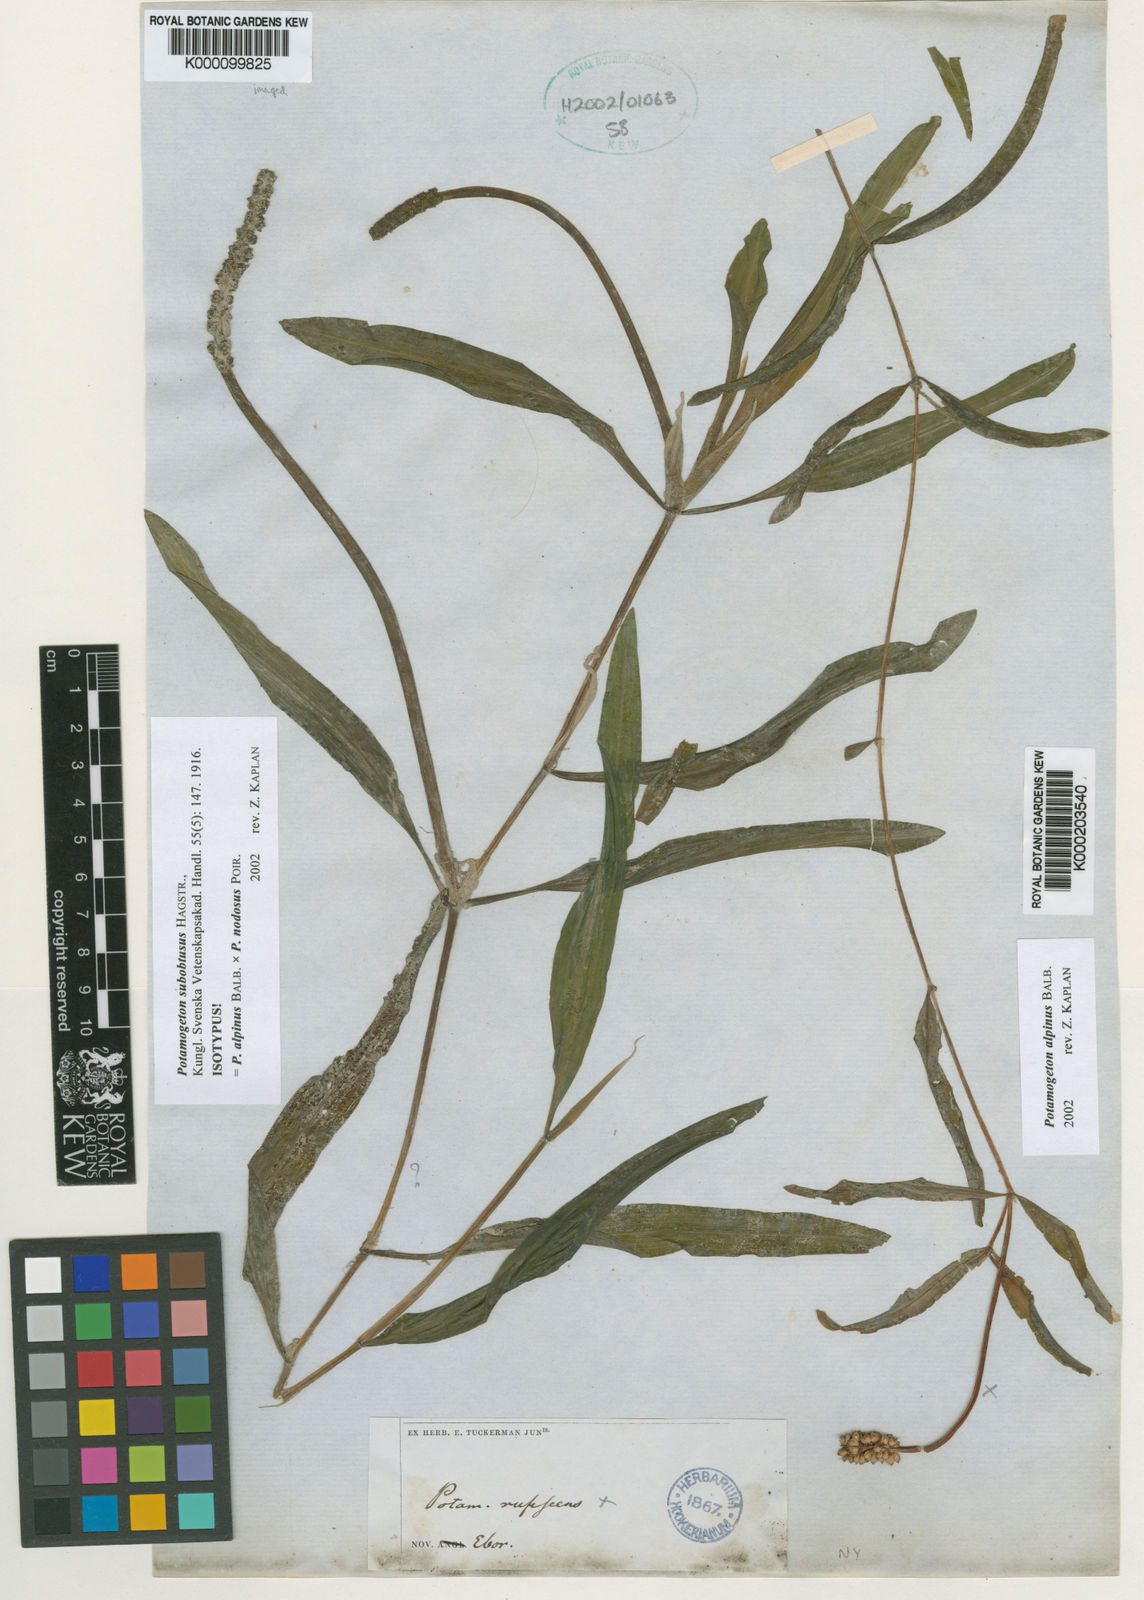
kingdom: Plantae
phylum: Tracheophyta
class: Liliopsida
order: Alismatales
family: Potamogetonaceae
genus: Potamogeton
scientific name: Potamogeton alpinus
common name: Red pondweed
